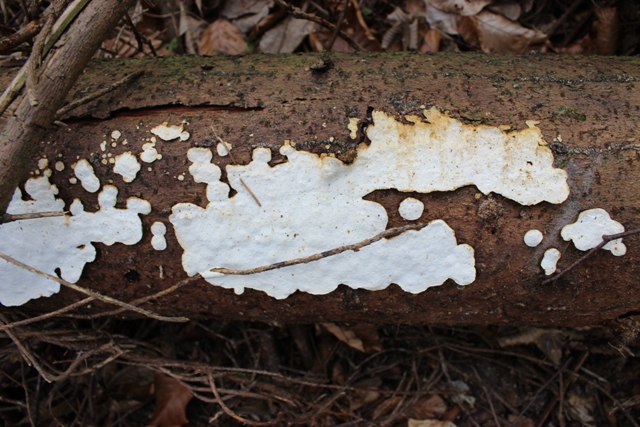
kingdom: Fungi
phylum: Basidiomycota
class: Agaricomycetes
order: Polyporales
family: Fomitopsidaceae
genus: Neoantrodia
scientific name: Neoantrodia serialis
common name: række-sejporesvamp
